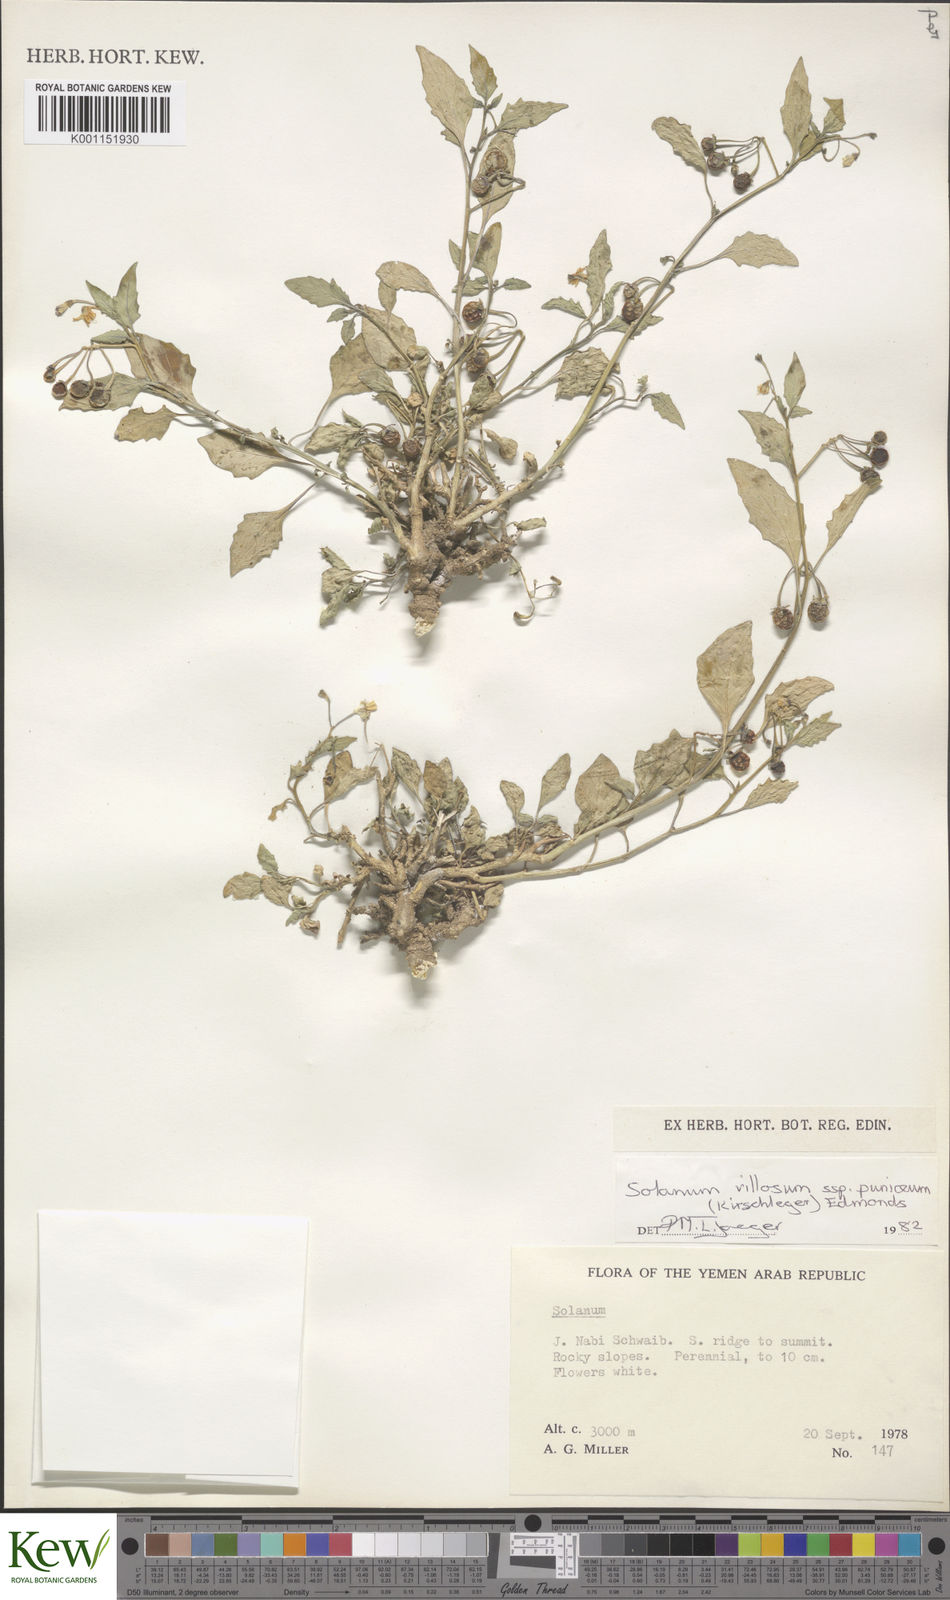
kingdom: Plantae
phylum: Tracheophyta
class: Magnoliopsida
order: Solanales
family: Solanaceae
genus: Solanum
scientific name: Solanum villosum
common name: Red nightshade
